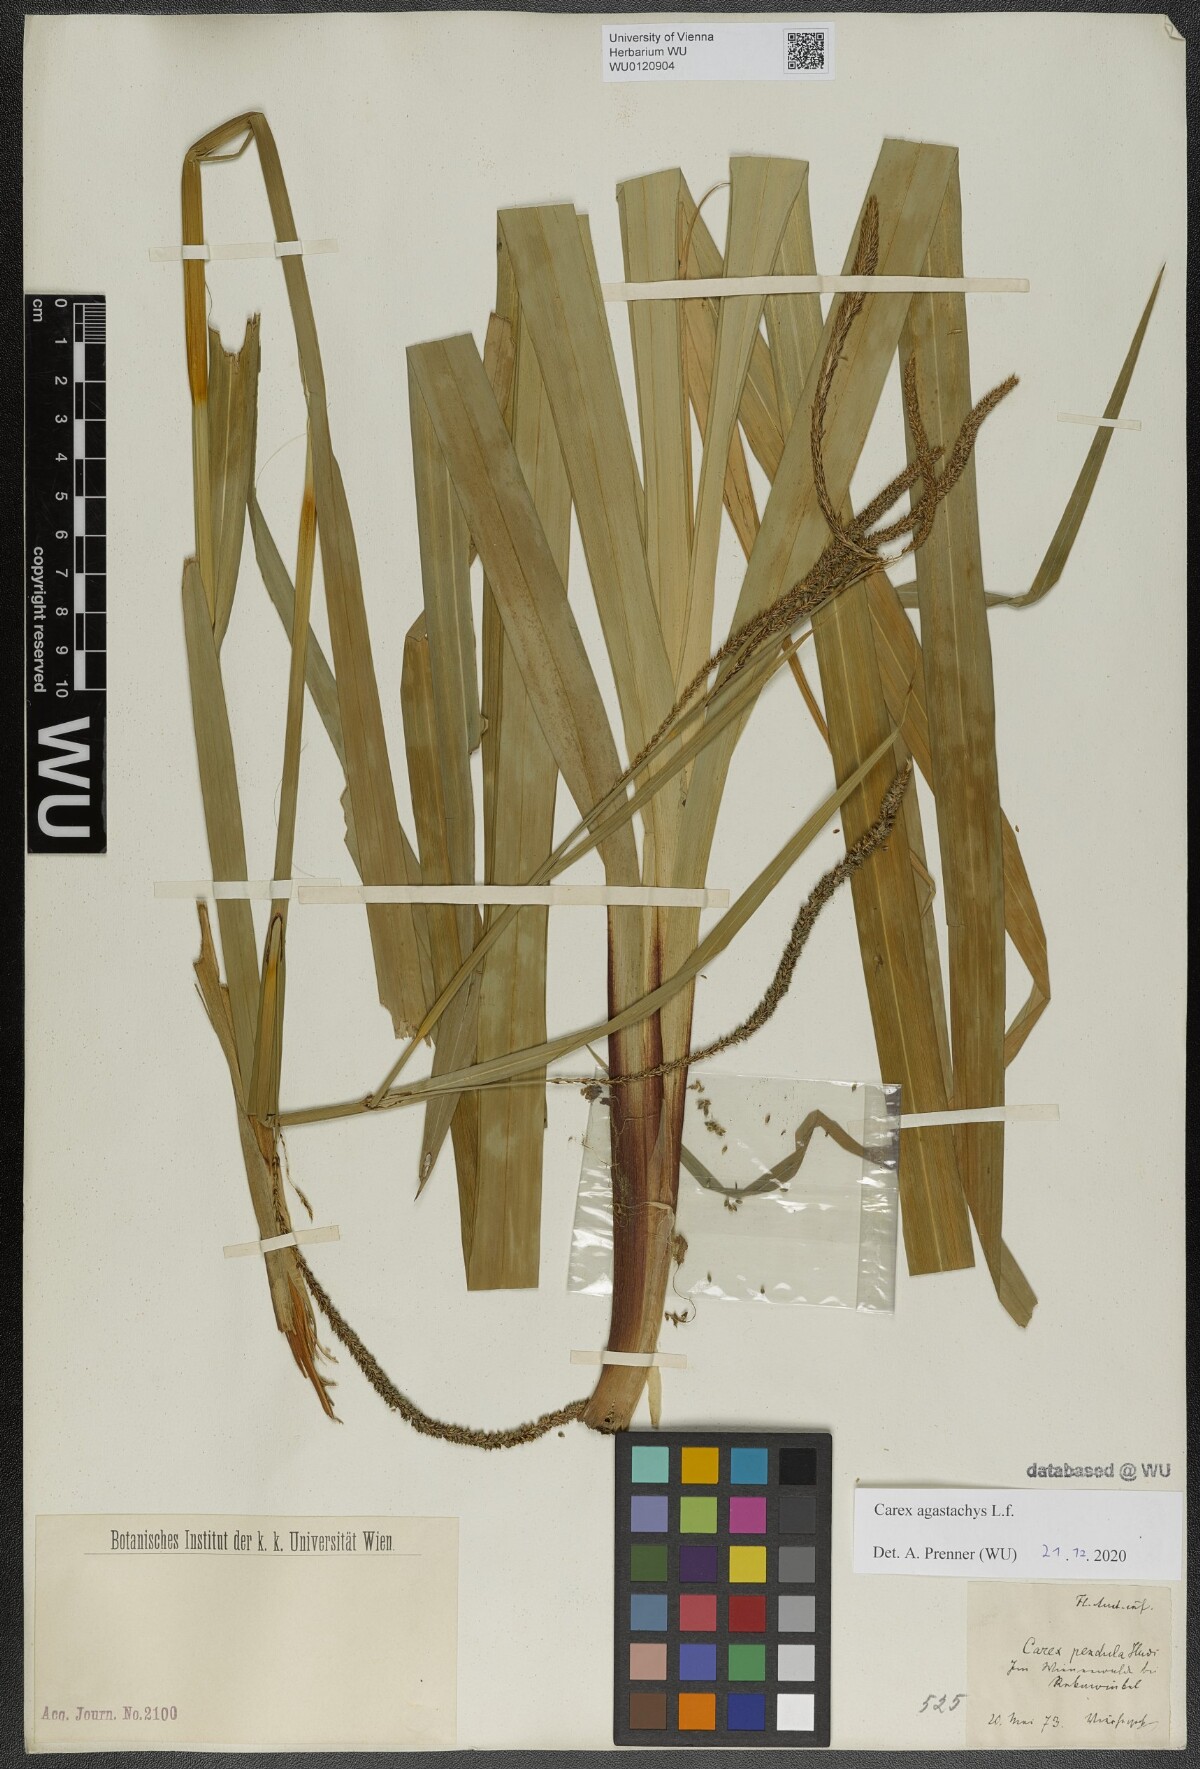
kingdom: Plantae
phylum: Tracheophyta
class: Liliopsida
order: Poales
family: Cyperaceae
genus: Carex
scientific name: Carex agastachys
